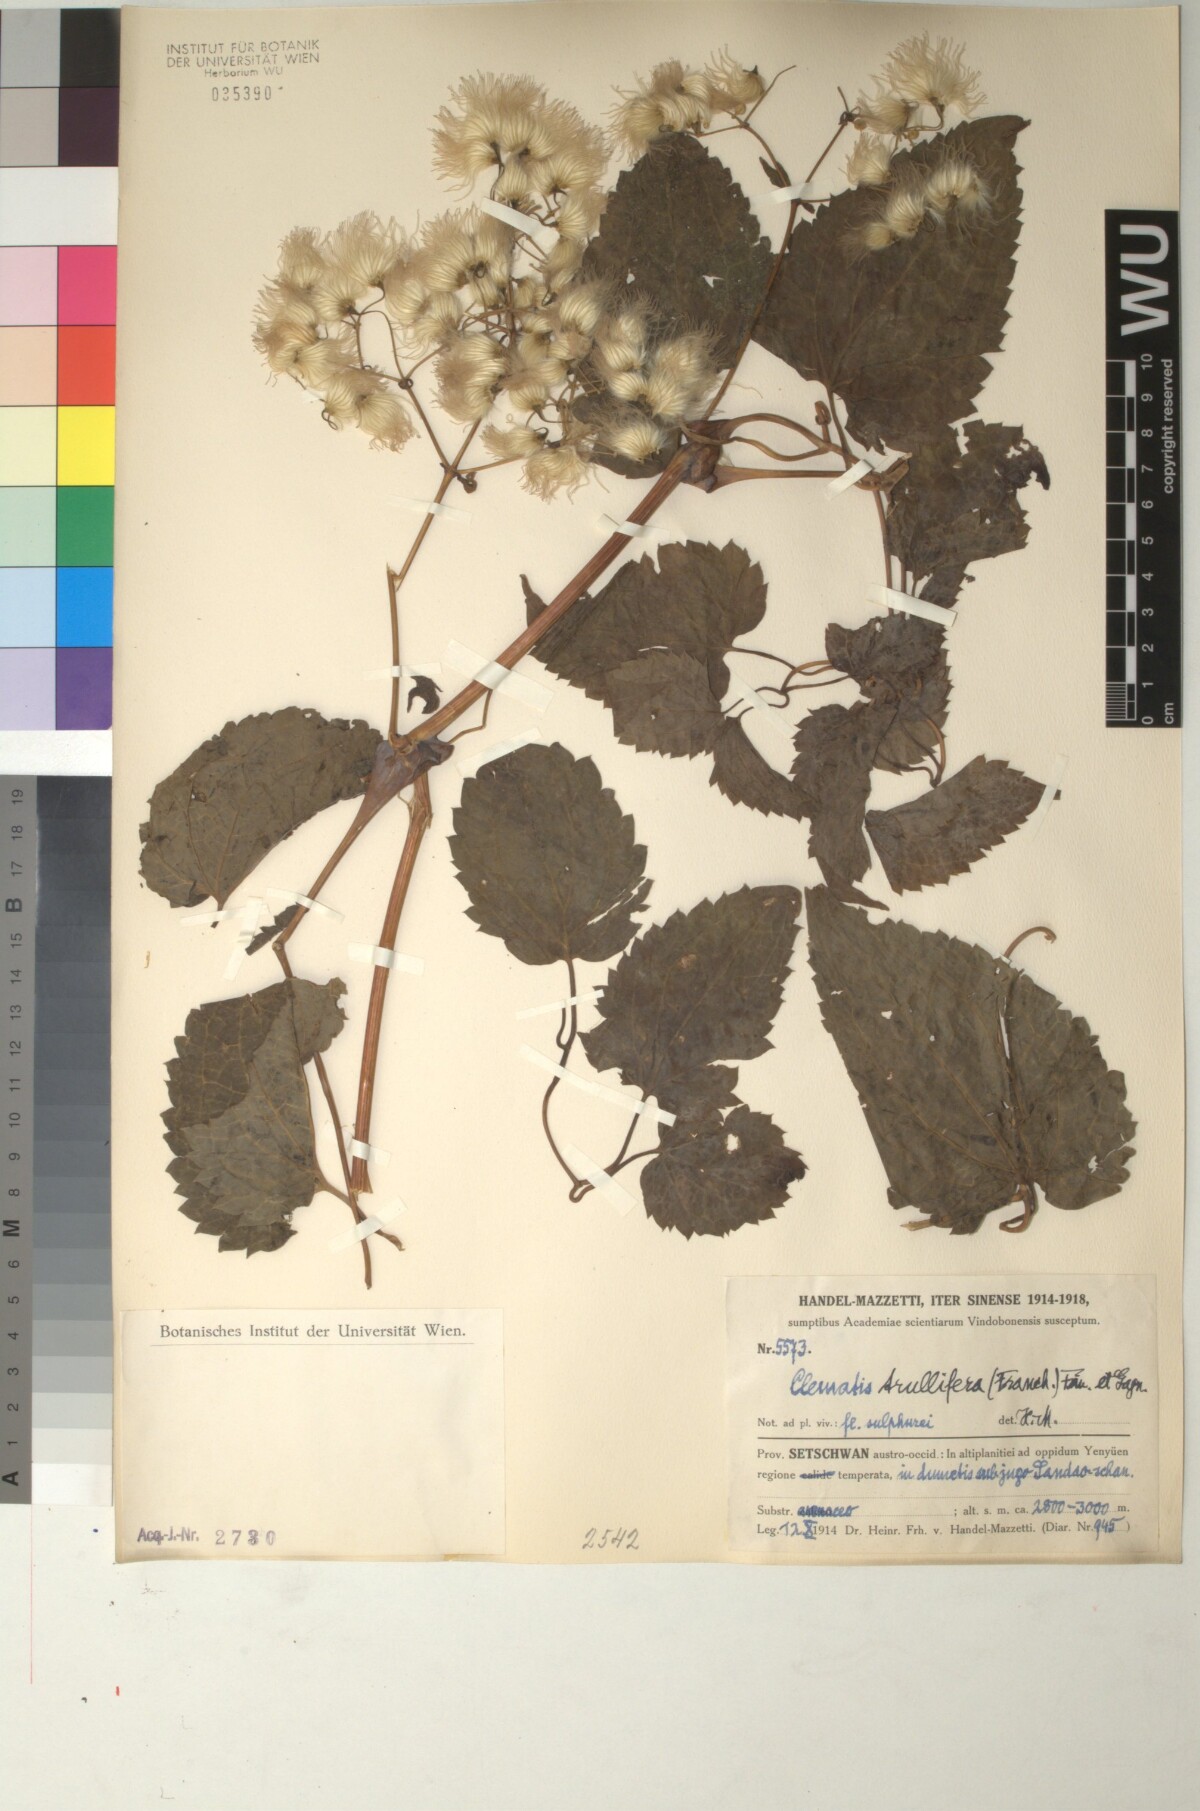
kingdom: Plantae
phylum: Tracheophyta
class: Magnoliopsida
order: Ranunculales
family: Ranunculaceae
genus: Clematis
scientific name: Clematis connata
